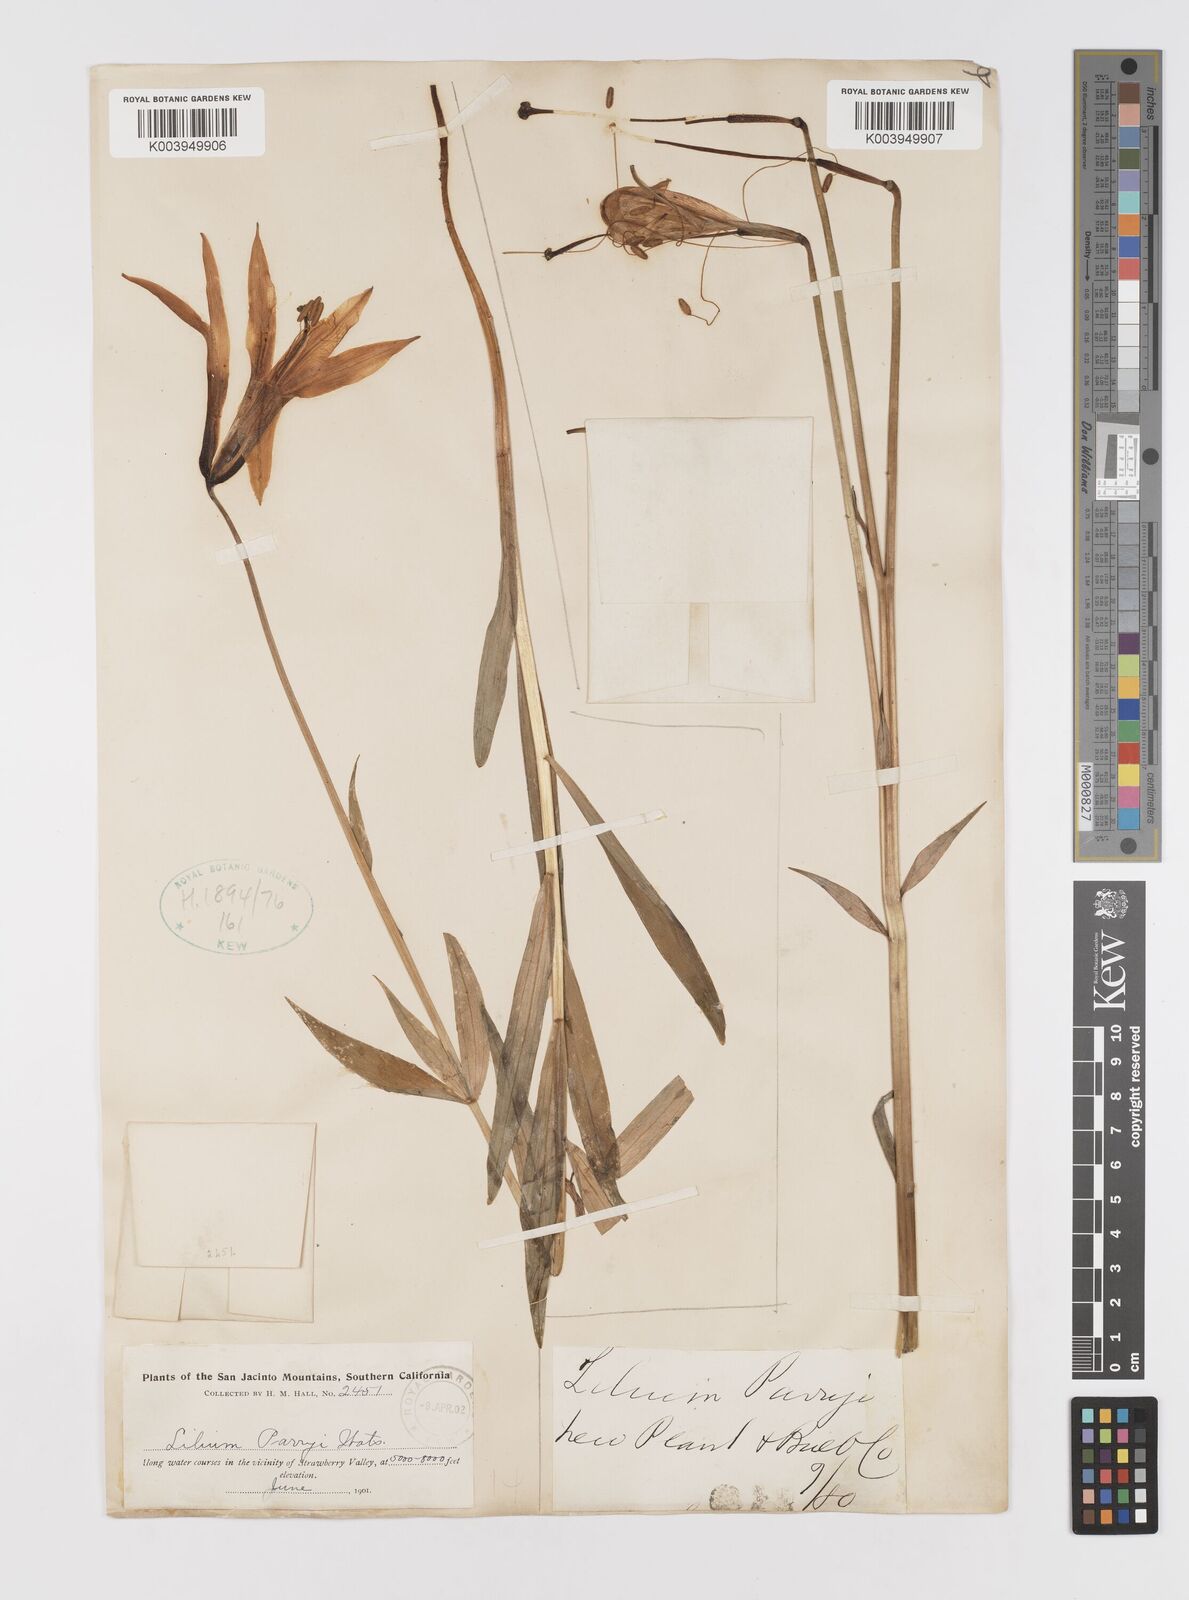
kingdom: Plantae
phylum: Tracheophyta
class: Liliopsida
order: Liliales
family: Liliaceae
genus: Lilium
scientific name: Lilium parryi
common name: Lemon lily
